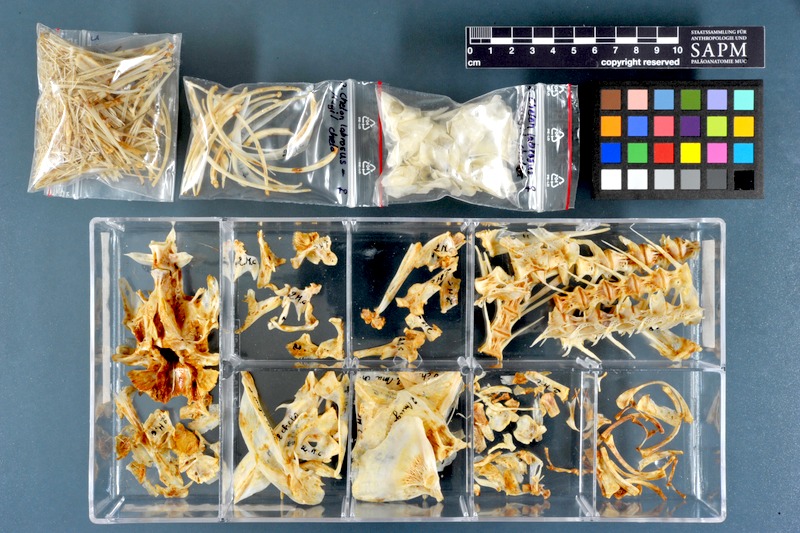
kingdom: Animalia
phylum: Chordata
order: Mugiliformes
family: Mugilidae
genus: Chelon
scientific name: Chelon labrosus
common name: Thick-lipped mullet
